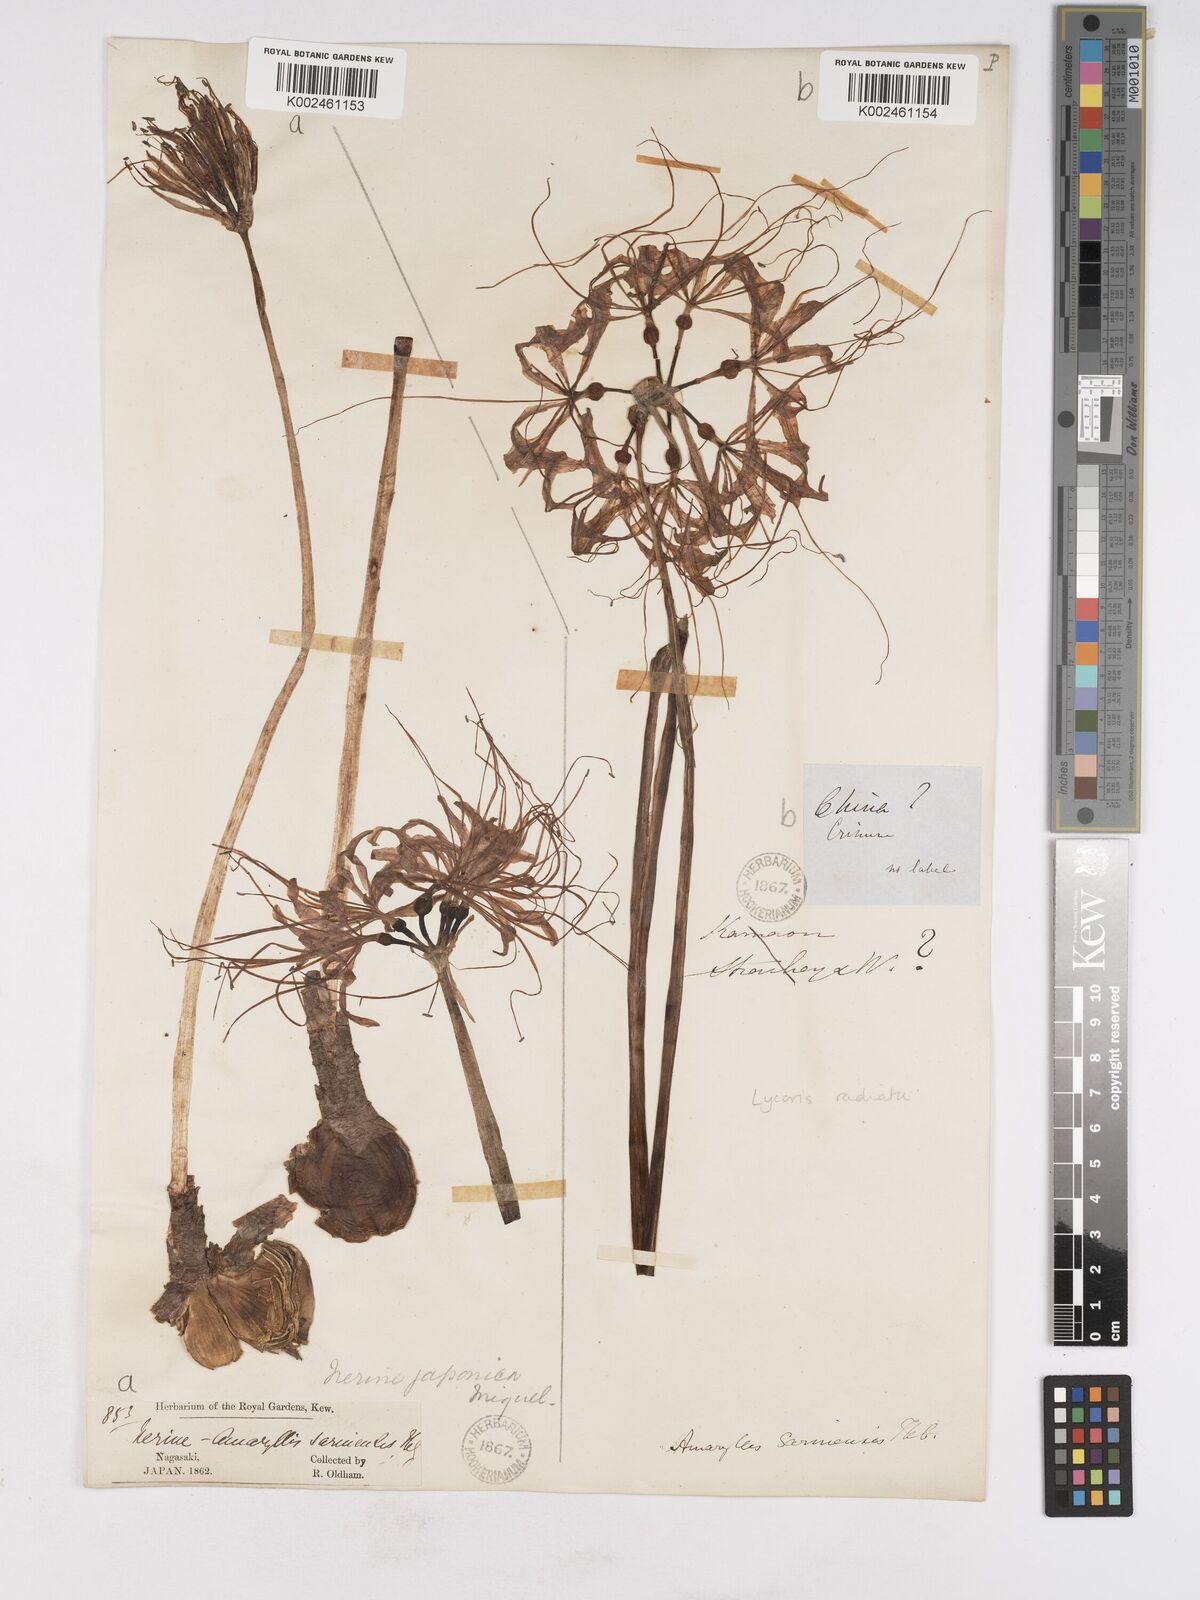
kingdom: Plantae
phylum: Tracheophyta
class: Liliopsida
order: Asparagales
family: Amaryllidaceae
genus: Lycoris
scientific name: Lycoris radiata
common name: Red spider lily
